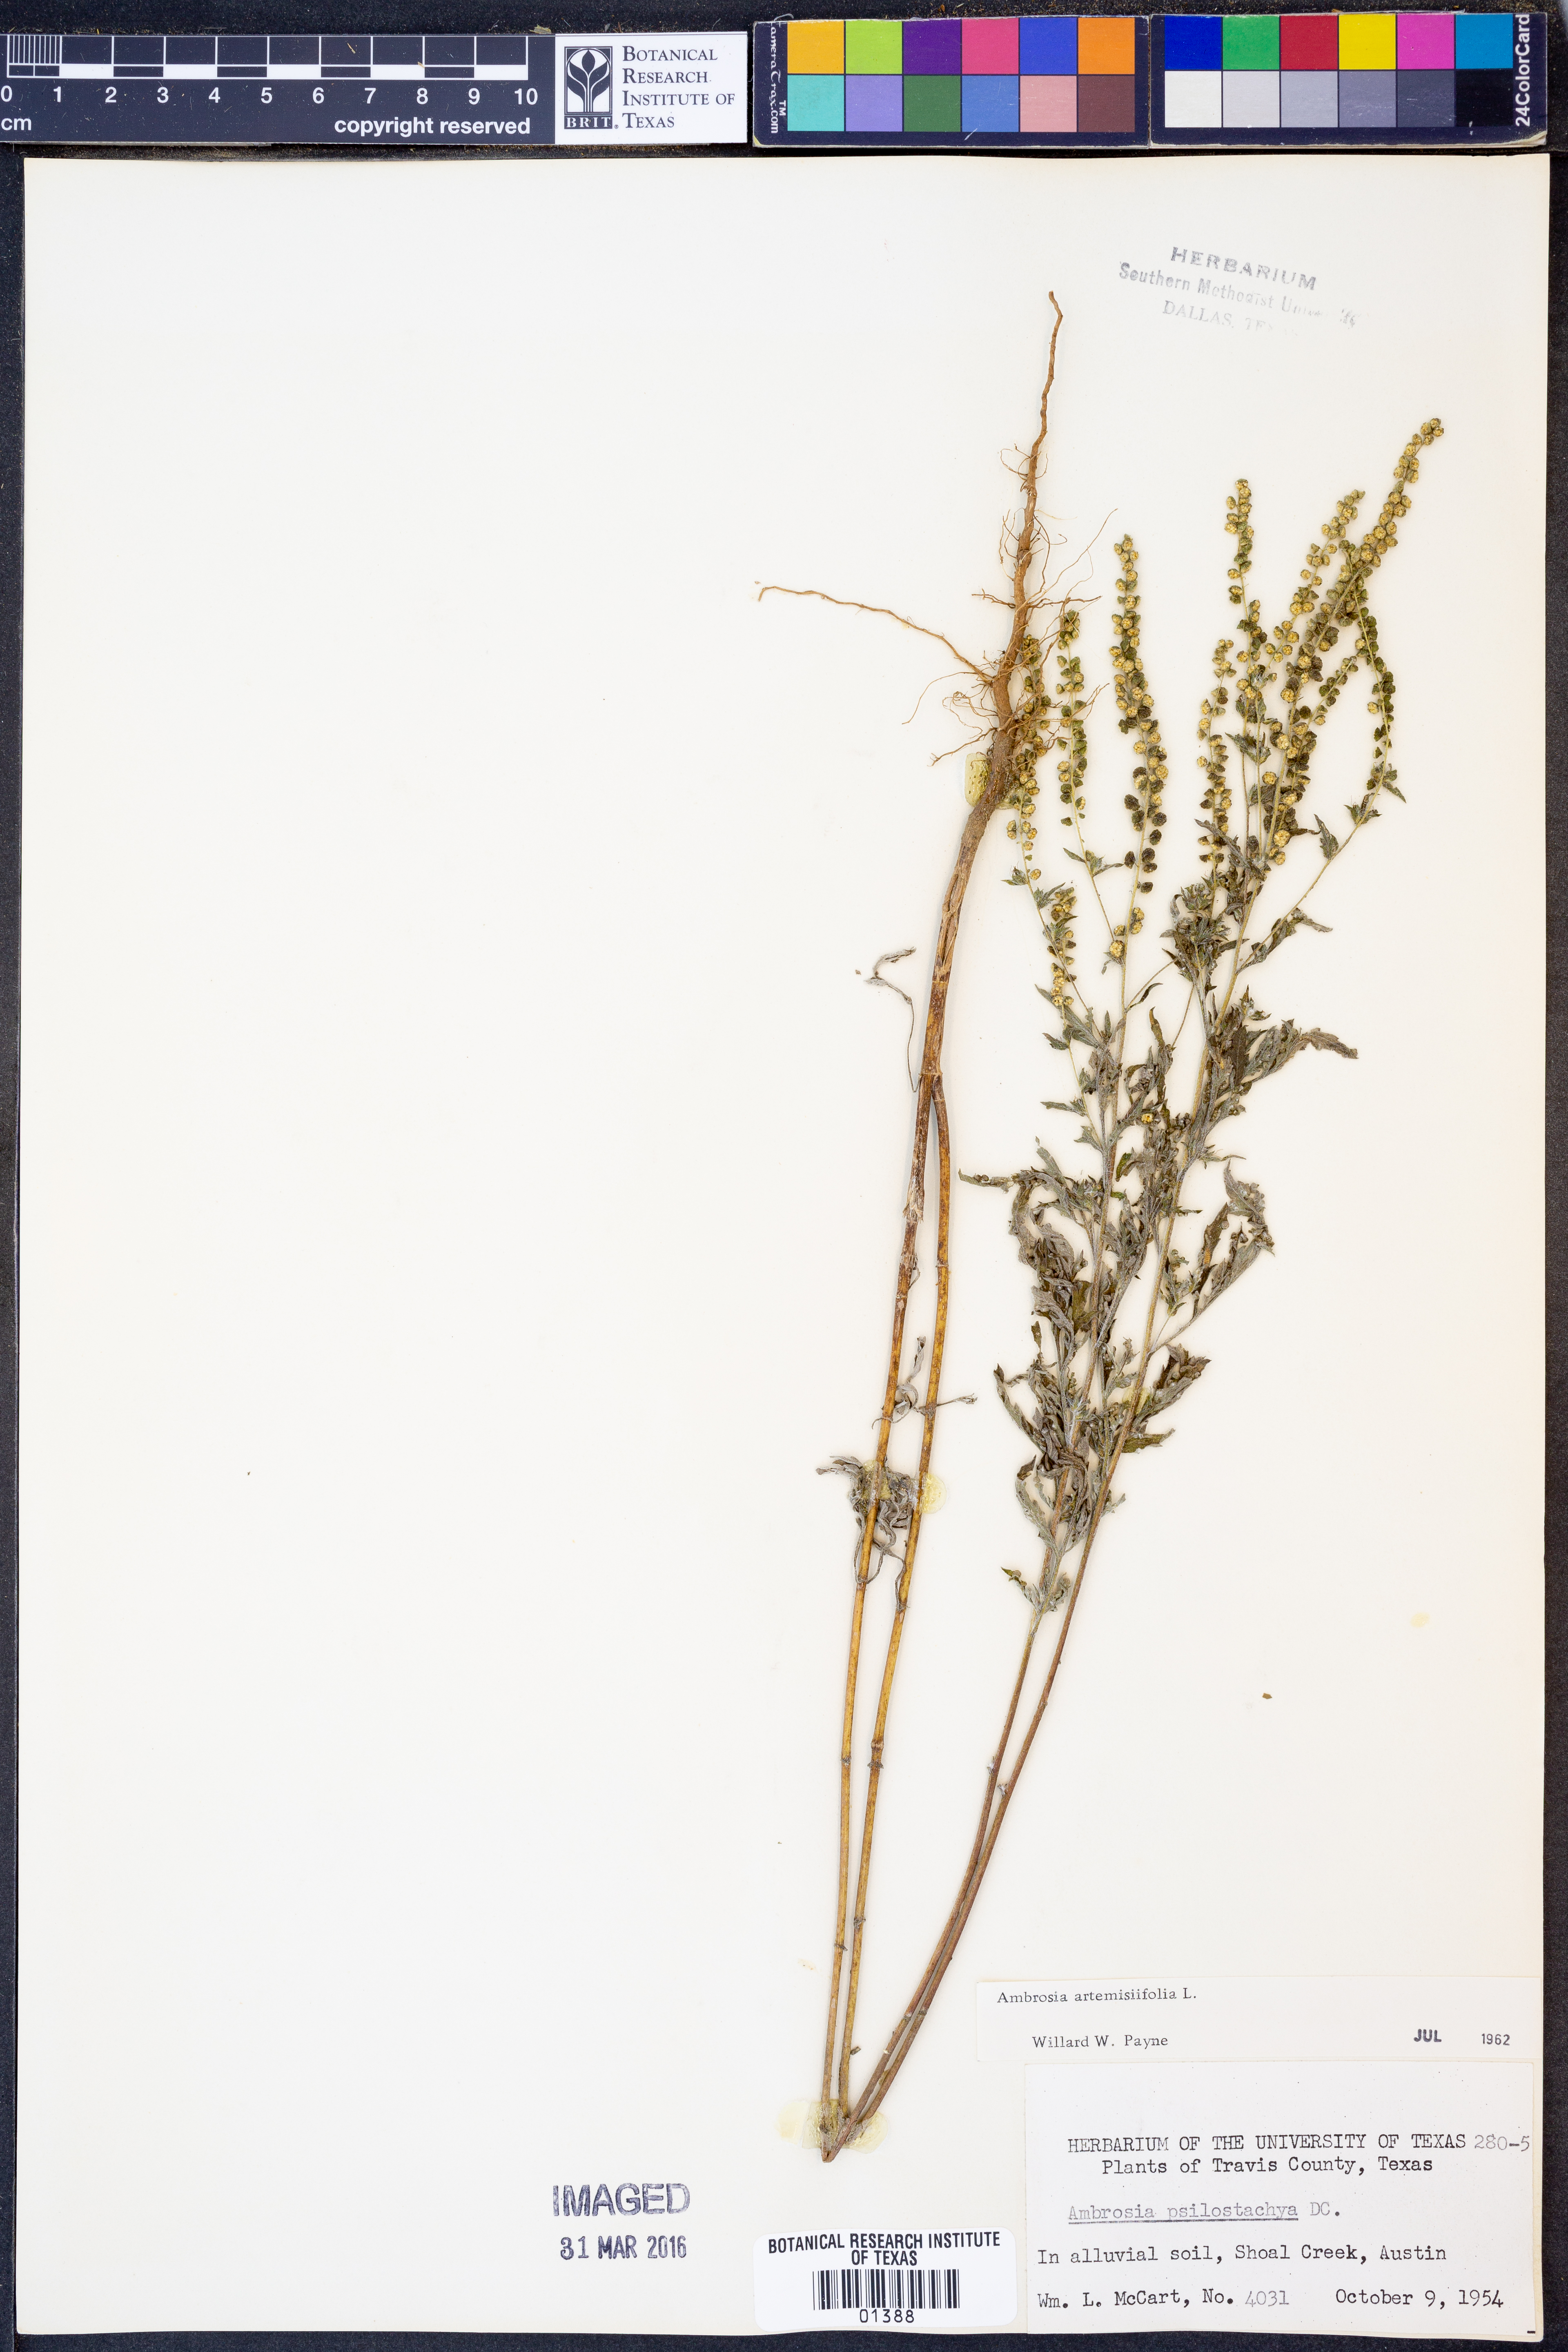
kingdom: Plantae
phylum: Tracheophyta
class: Magnoliopsida
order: Asterales
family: Asteraceae
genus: Ambrosia
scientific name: Ambrosia artemisiifolia
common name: Annual ragweed
